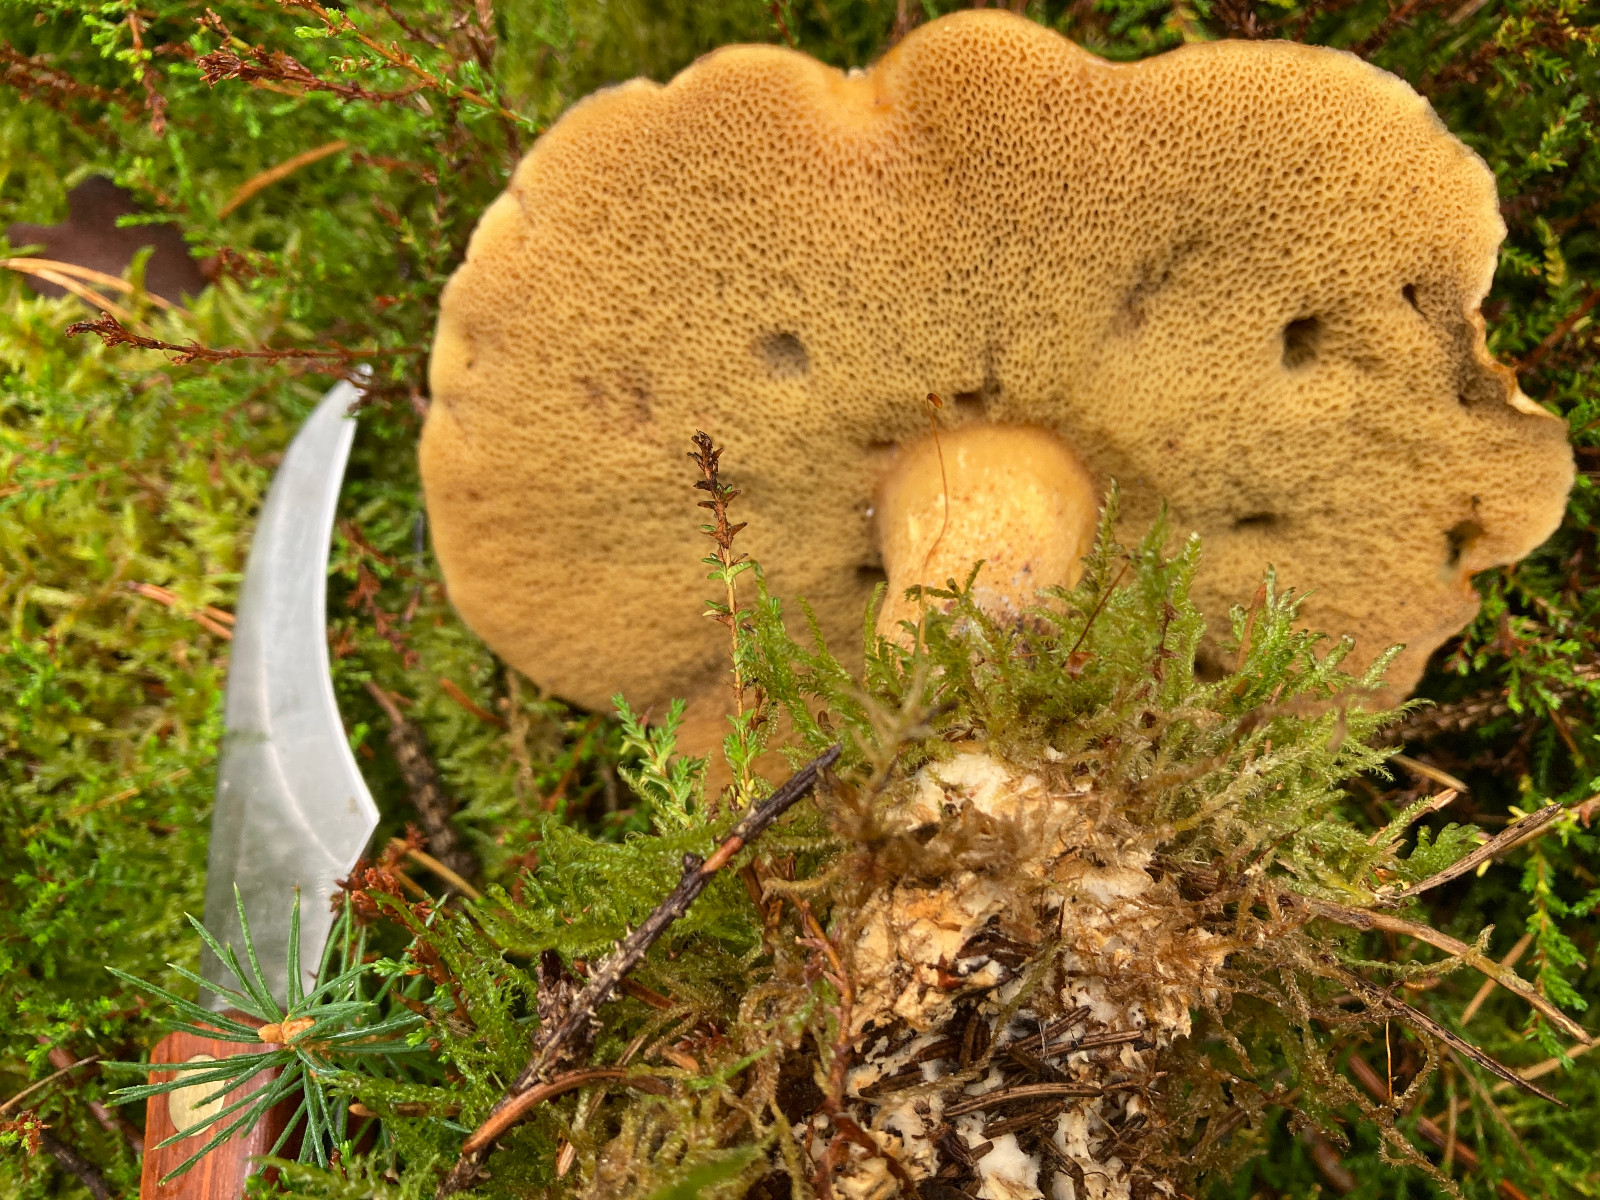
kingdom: Fungi
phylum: Basidiomycota
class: Agaricomycetes
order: Boletales
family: Suillaceae
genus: Suillus
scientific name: Suillus variegatus
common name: broget slimrørhat
